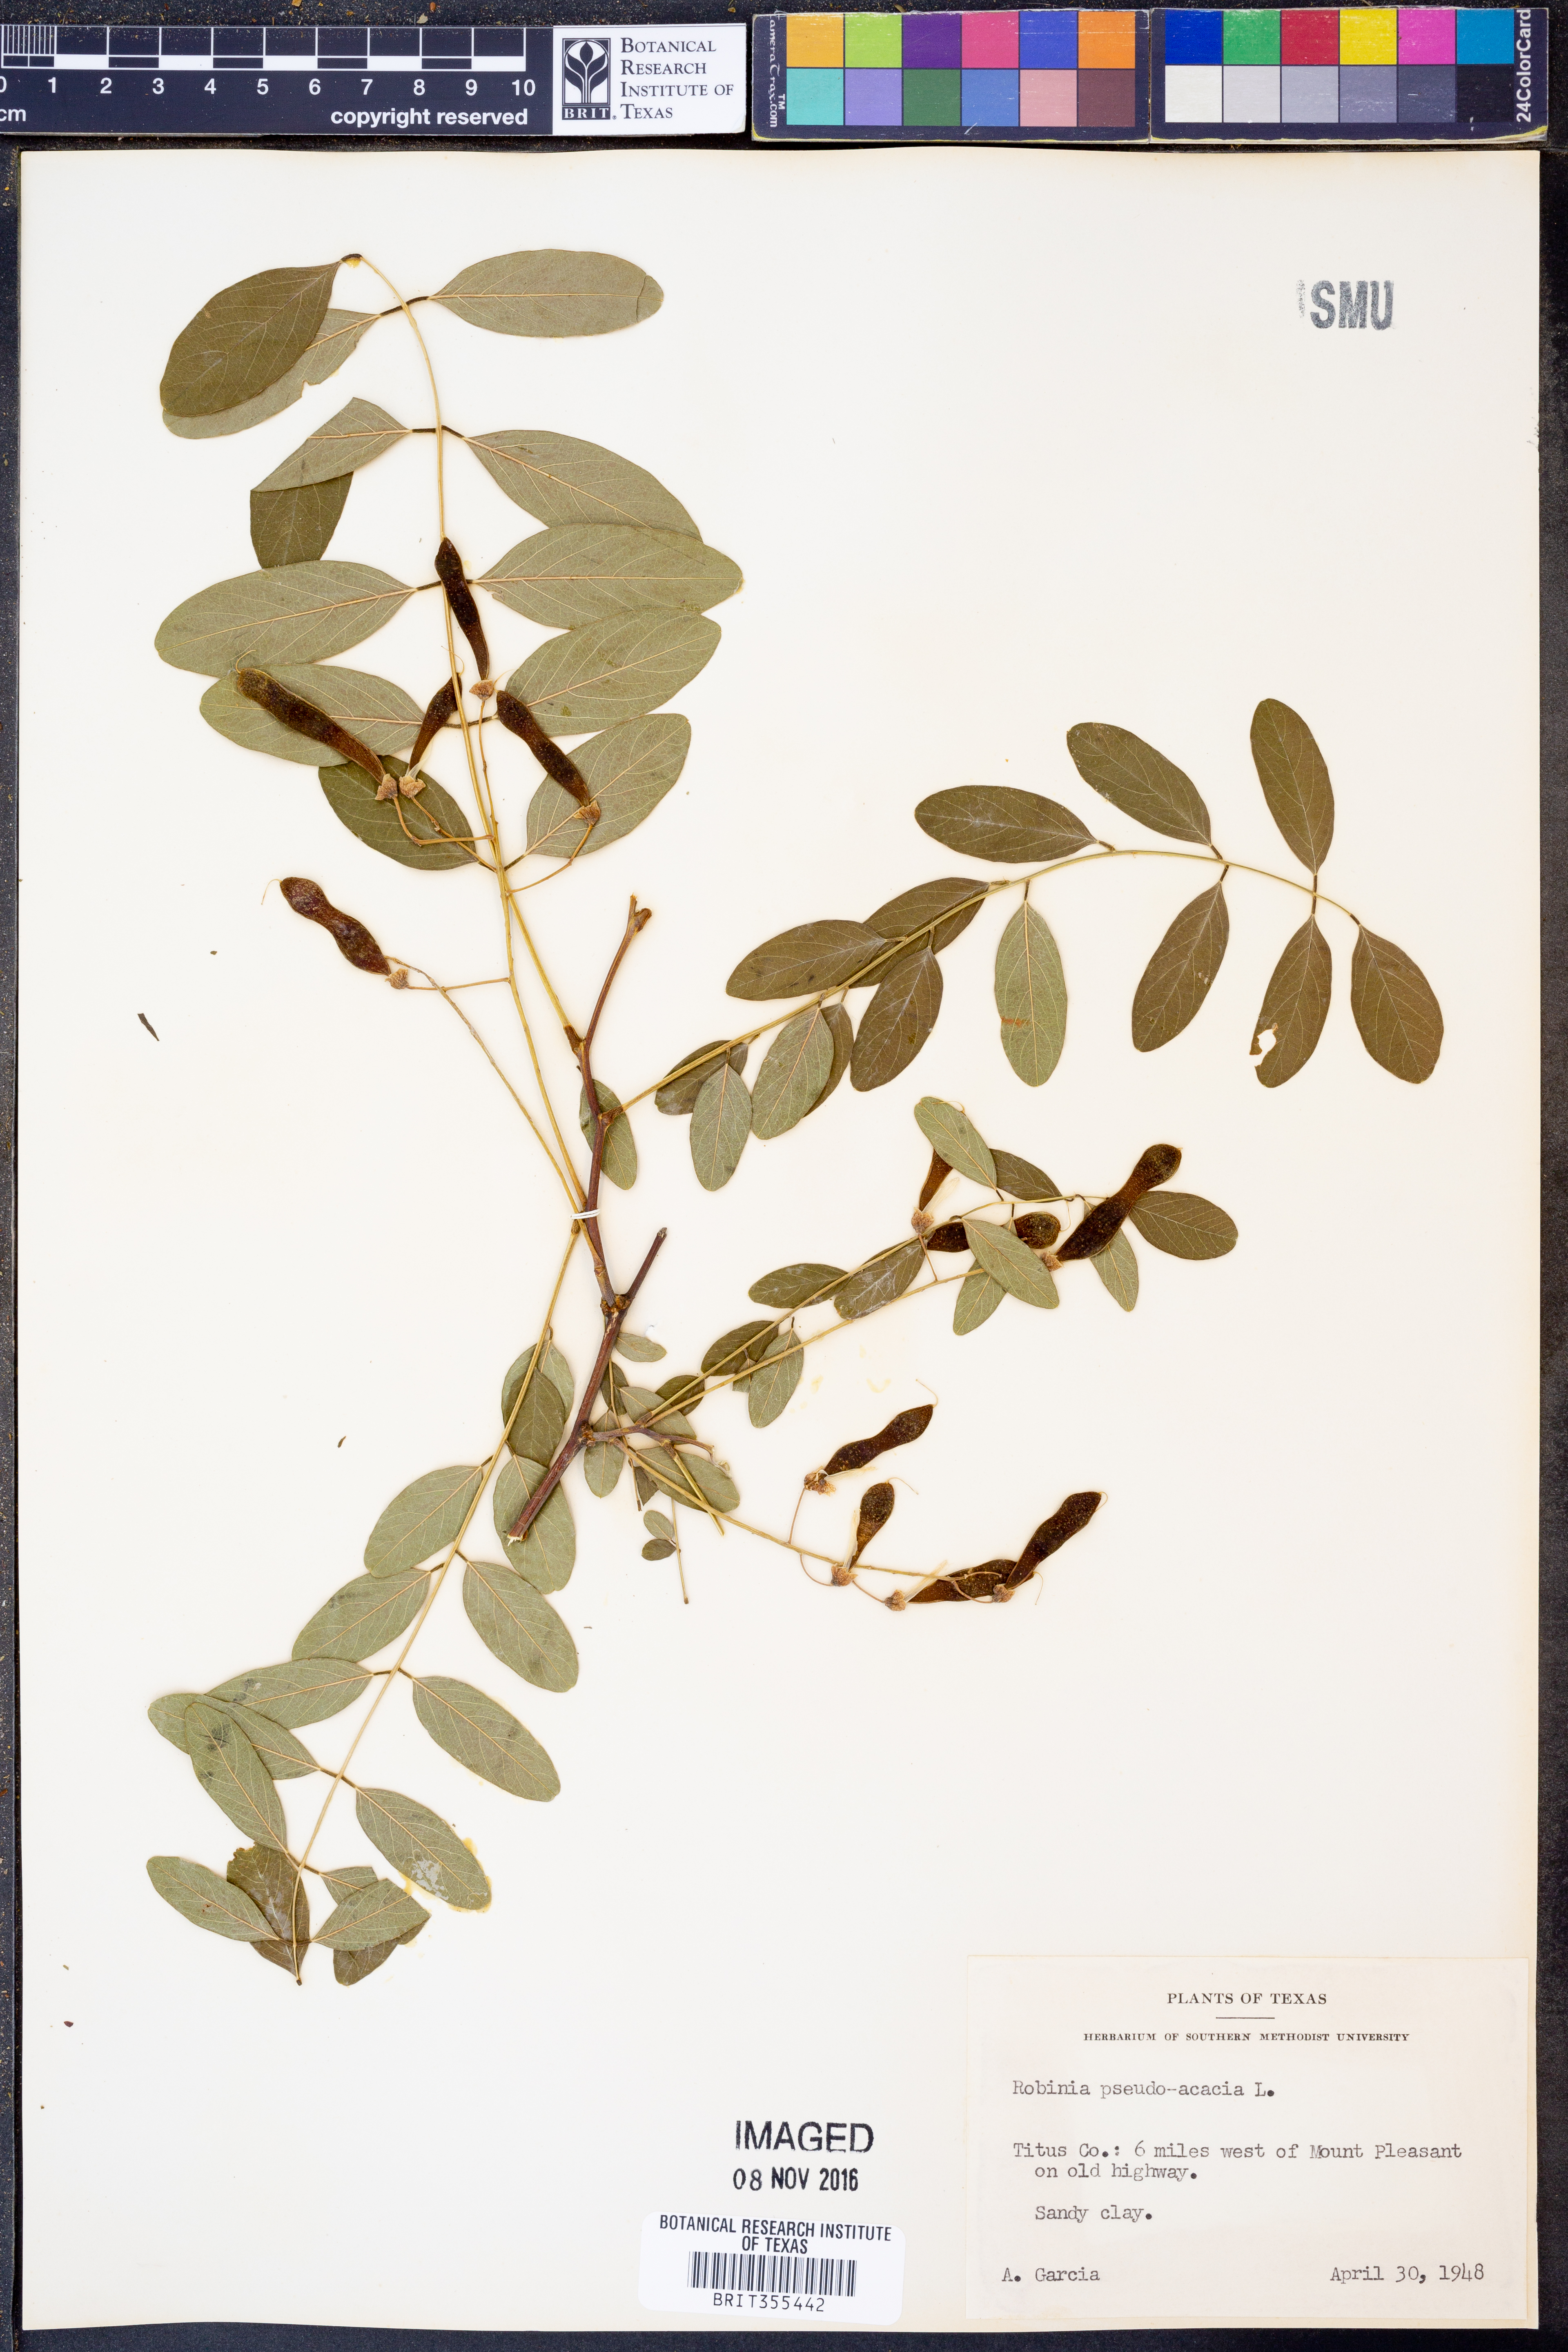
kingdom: Plantae
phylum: Tracheophyta
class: Magnoliopsida
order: Fabales
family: Fabaceae
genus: Robinia
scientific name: Robinia pseudoacacia
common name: Black locust
